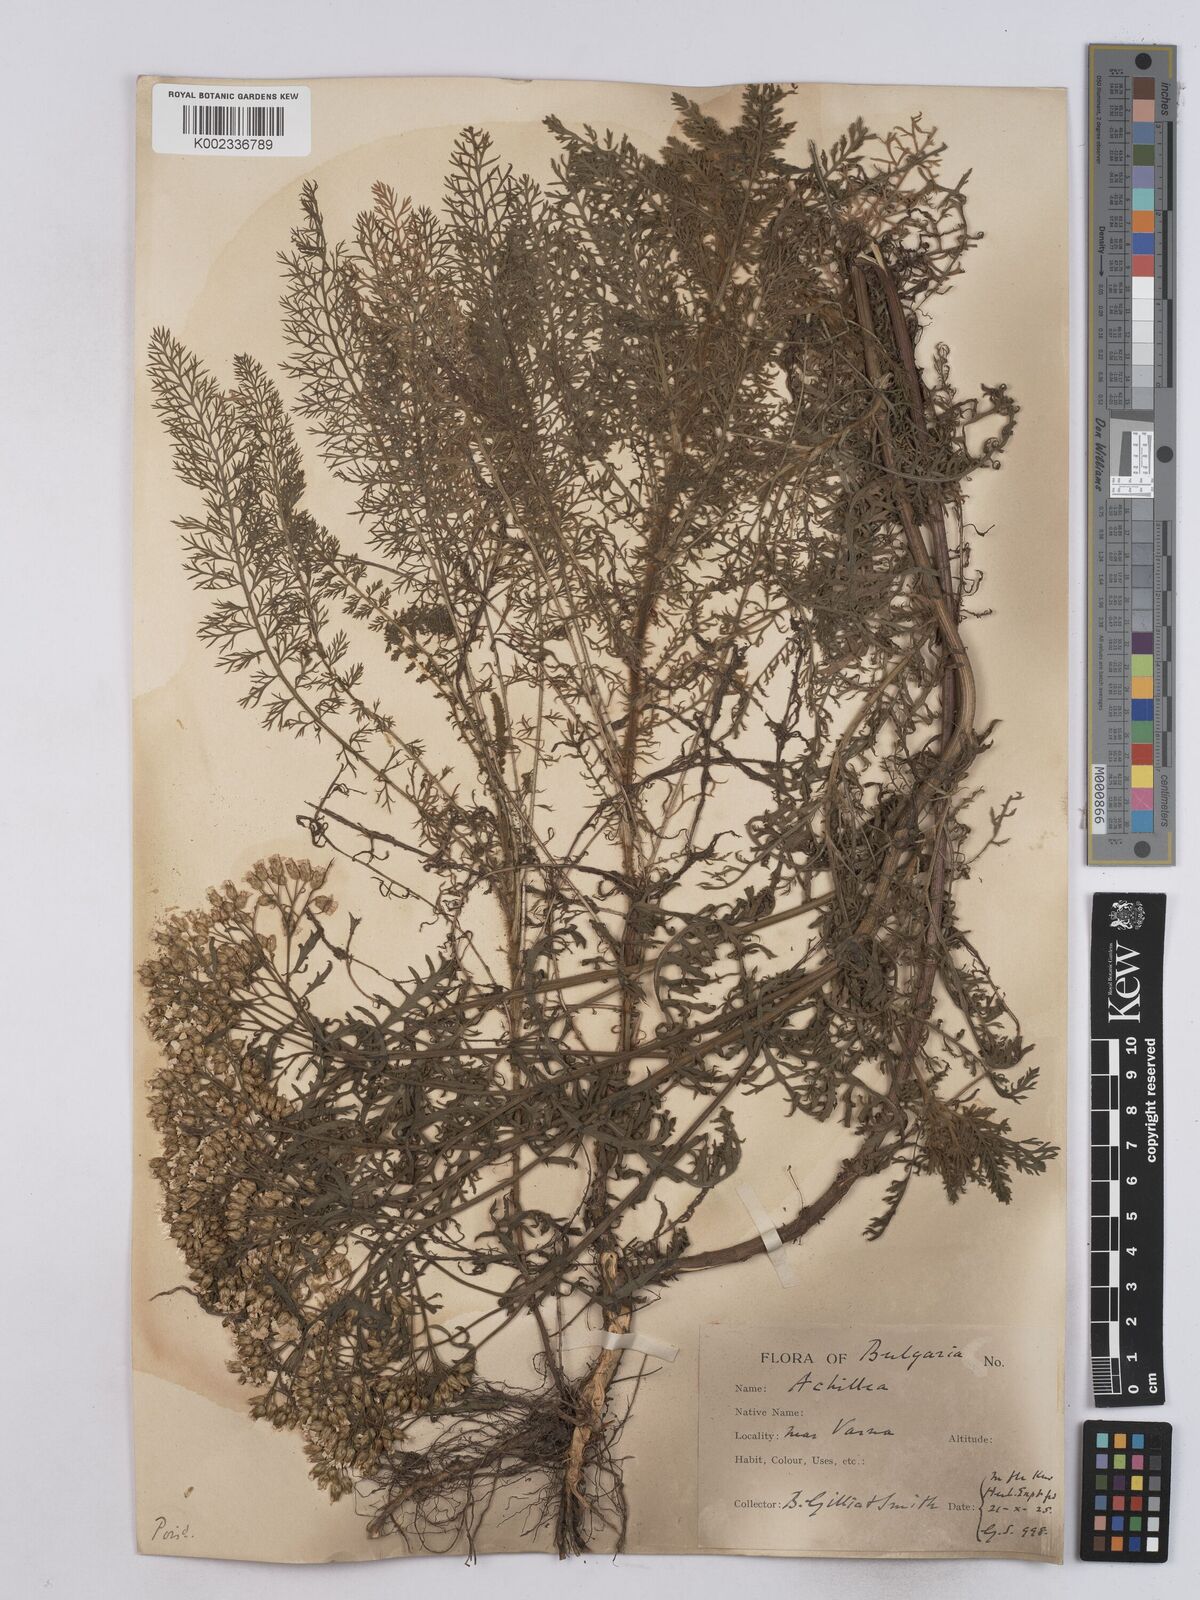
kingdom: Plantae
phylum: Tracheophyta
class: Magnoliopsida
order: Asterales
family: Asteraceae
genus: Achillea
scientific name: Achillea crithmifolia
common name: Yarrow
